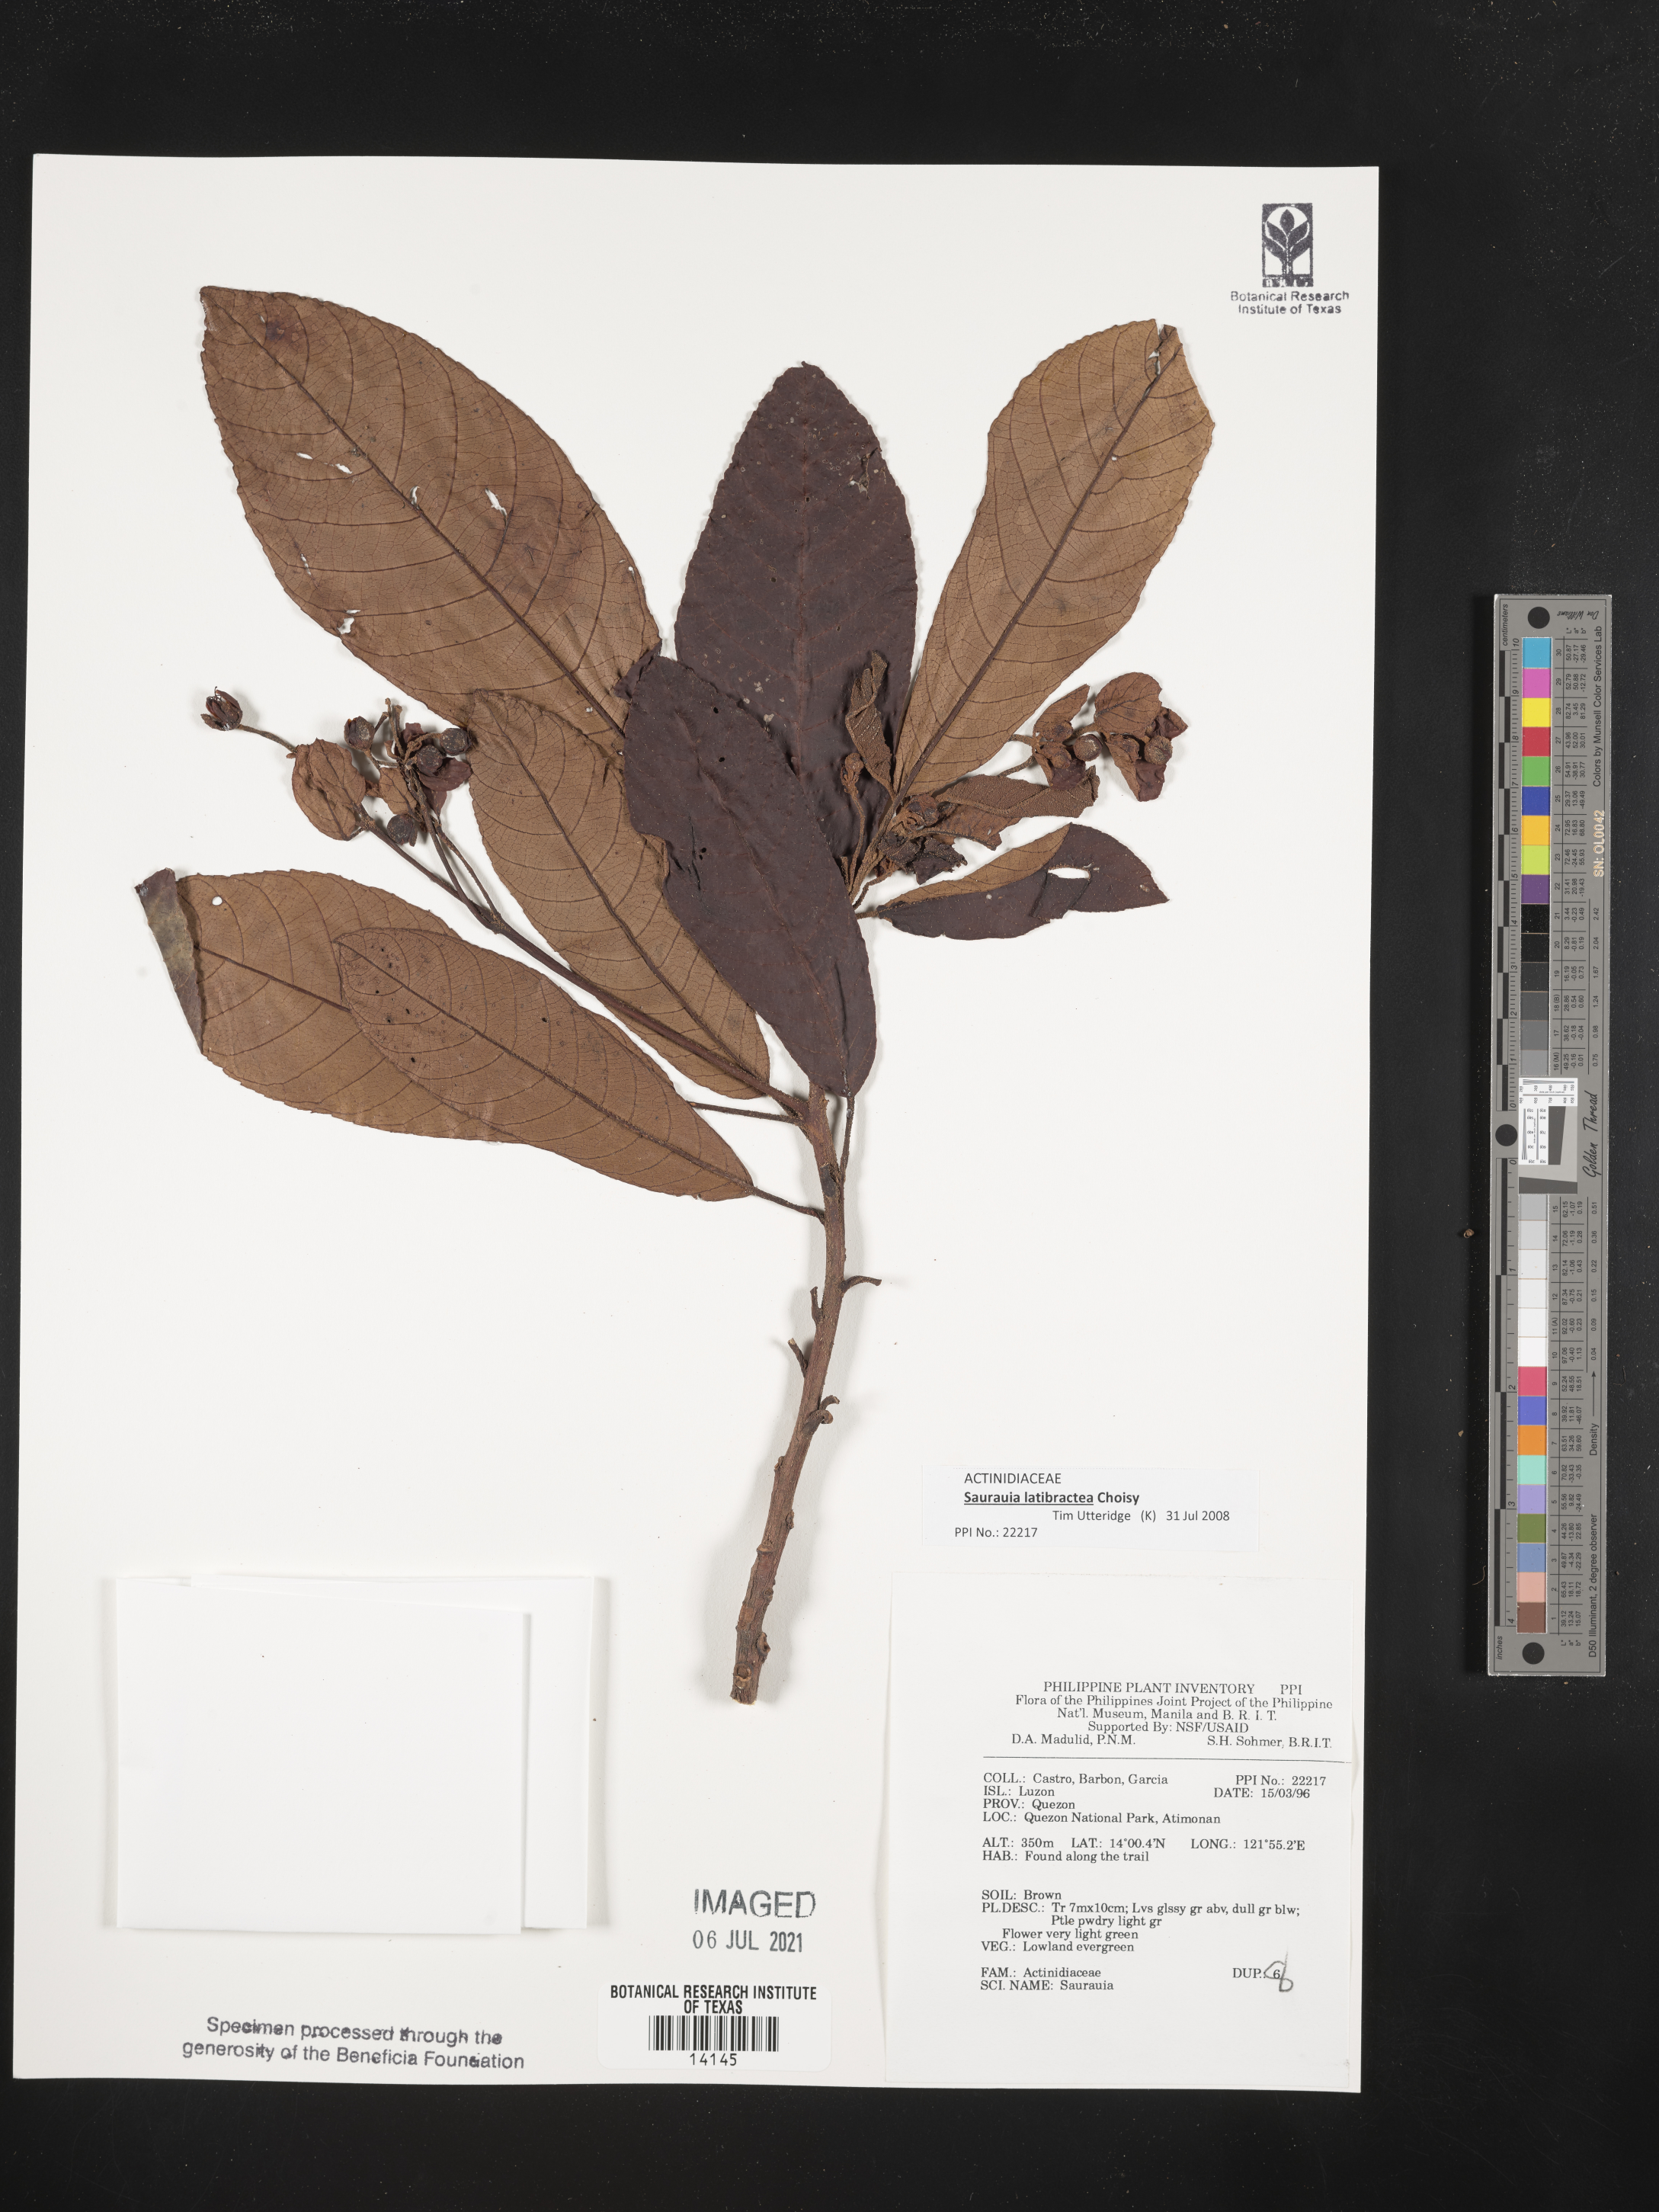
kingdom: Plantae
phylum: Tracheophyta
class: Magnoliopsida
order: Ericales
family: Actinidiaceae
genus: Saurauia
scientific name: Saurauia latibractea
